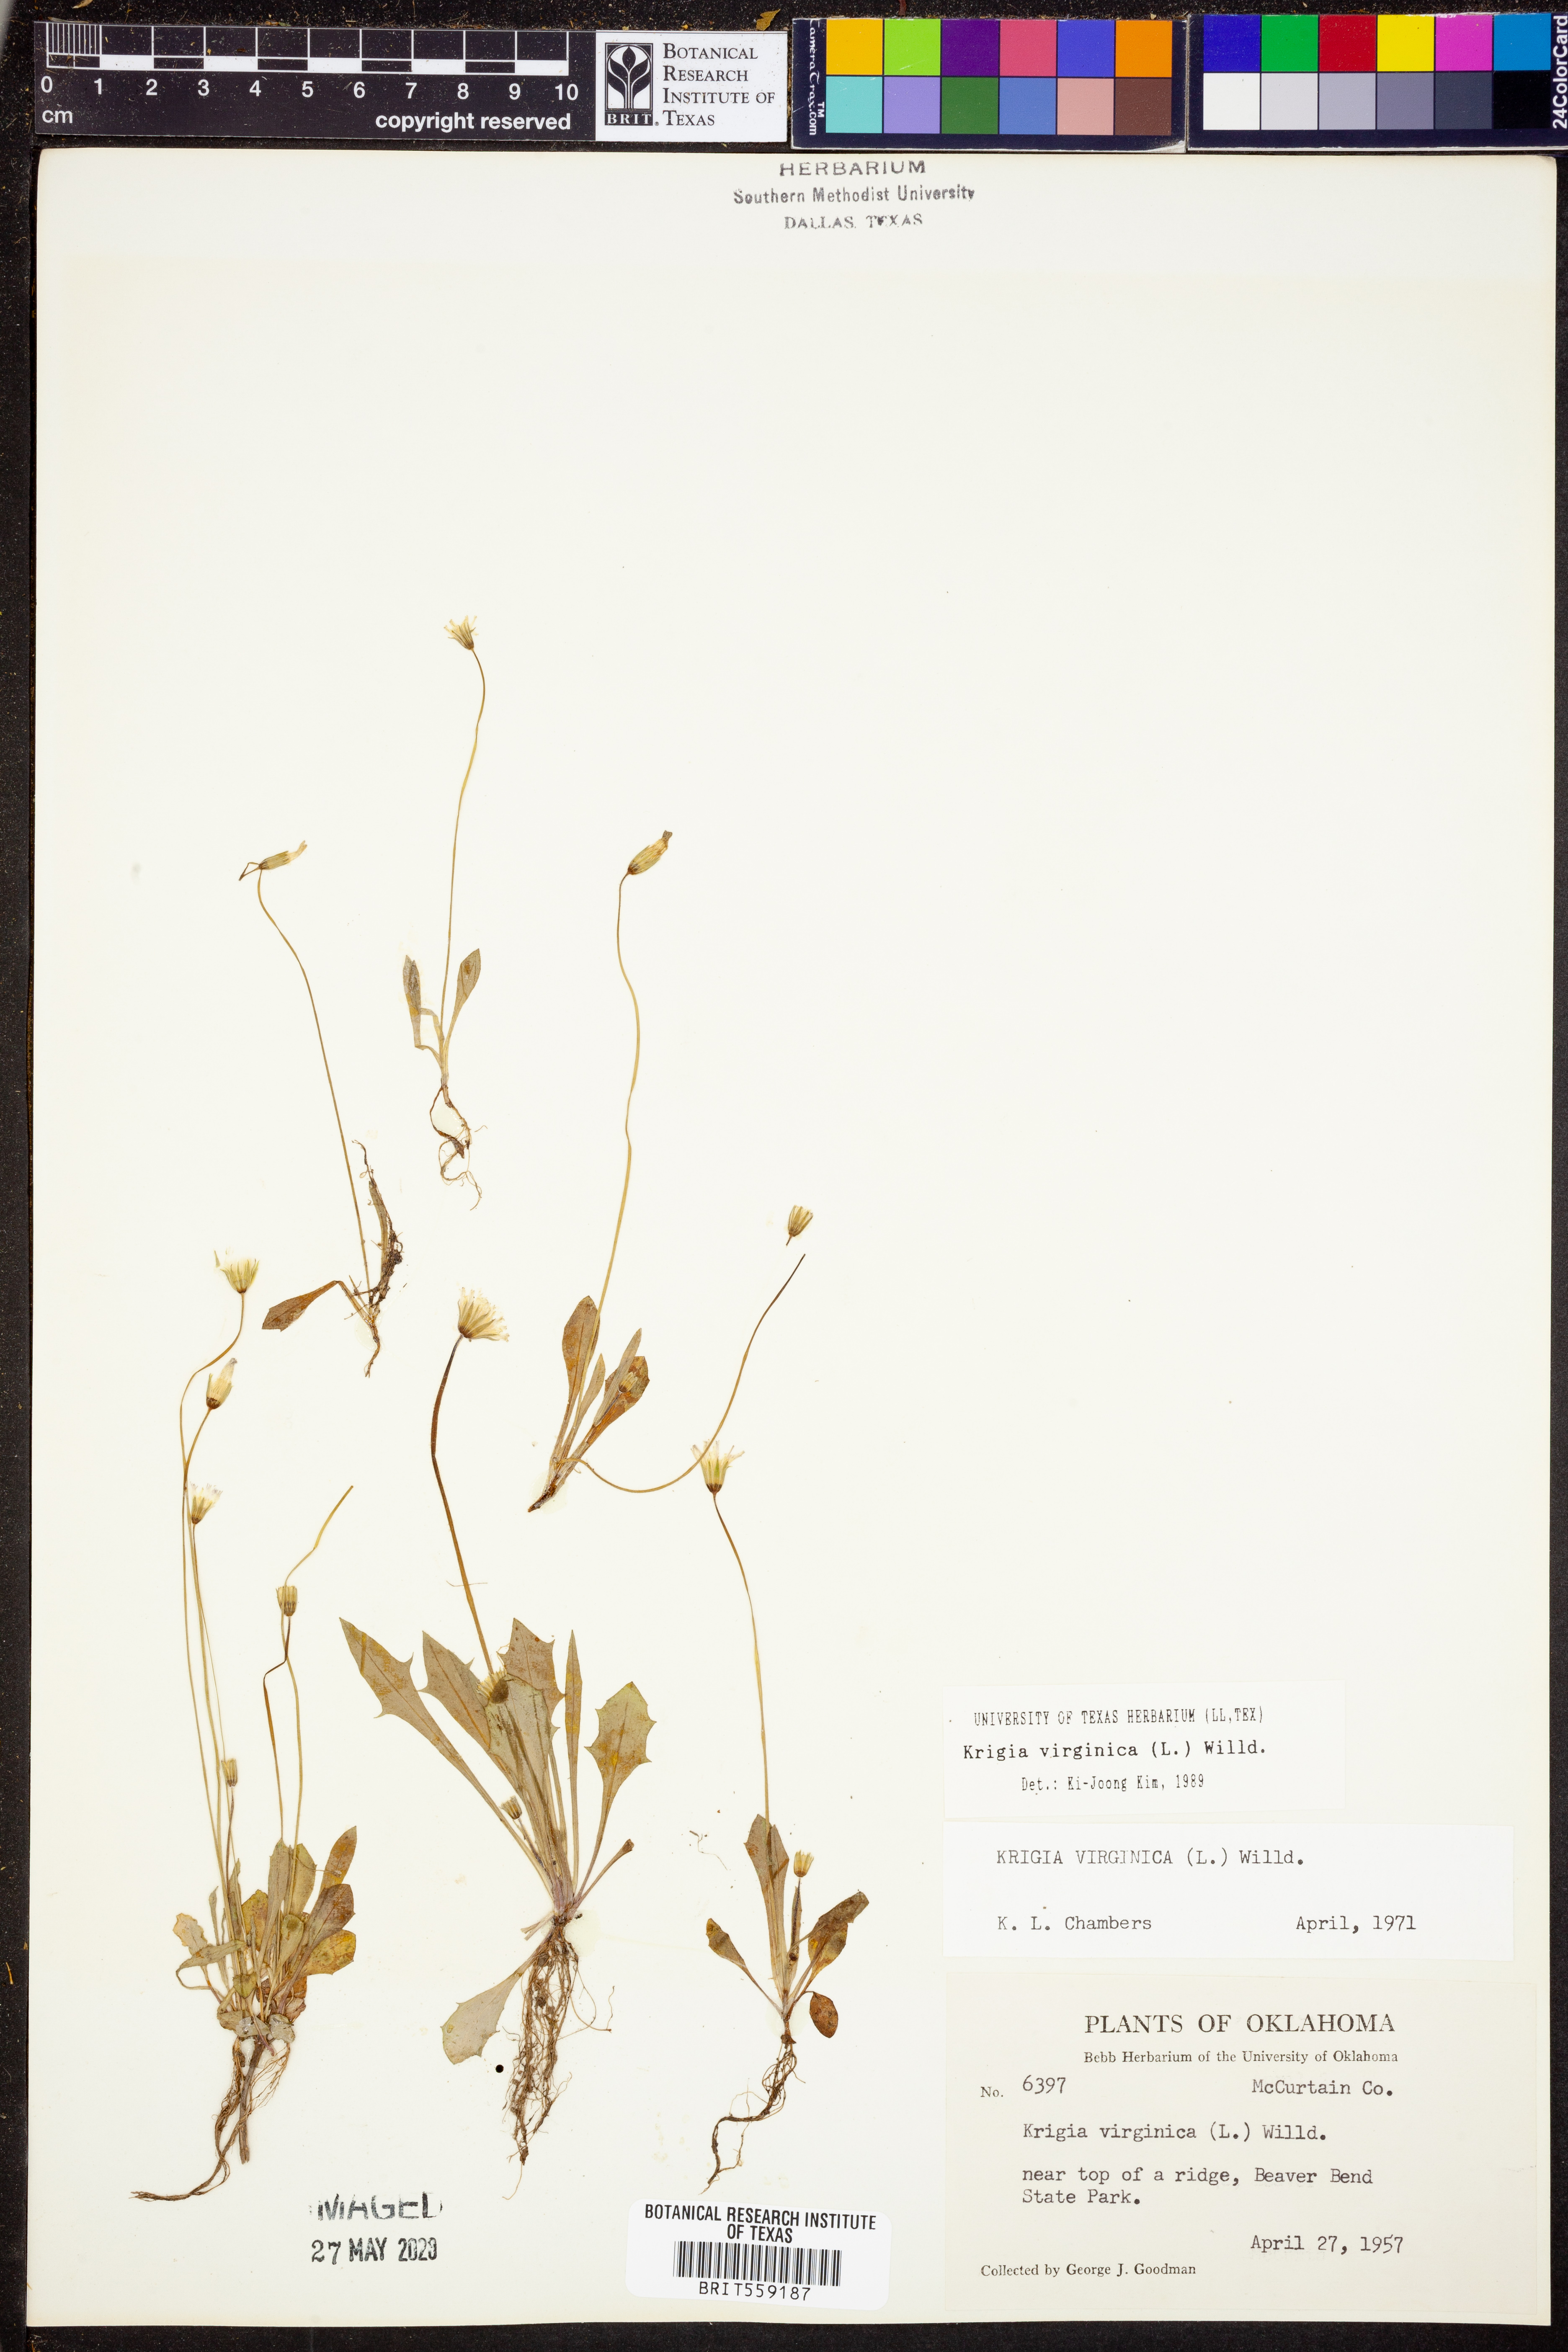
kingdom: Plantae
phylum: Tracheophyta
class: Magnoliopsida
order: Asterales
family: Asteraceae
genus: Krigia
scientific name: Krigia virginica
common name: Virginia dwarf-dandelion
